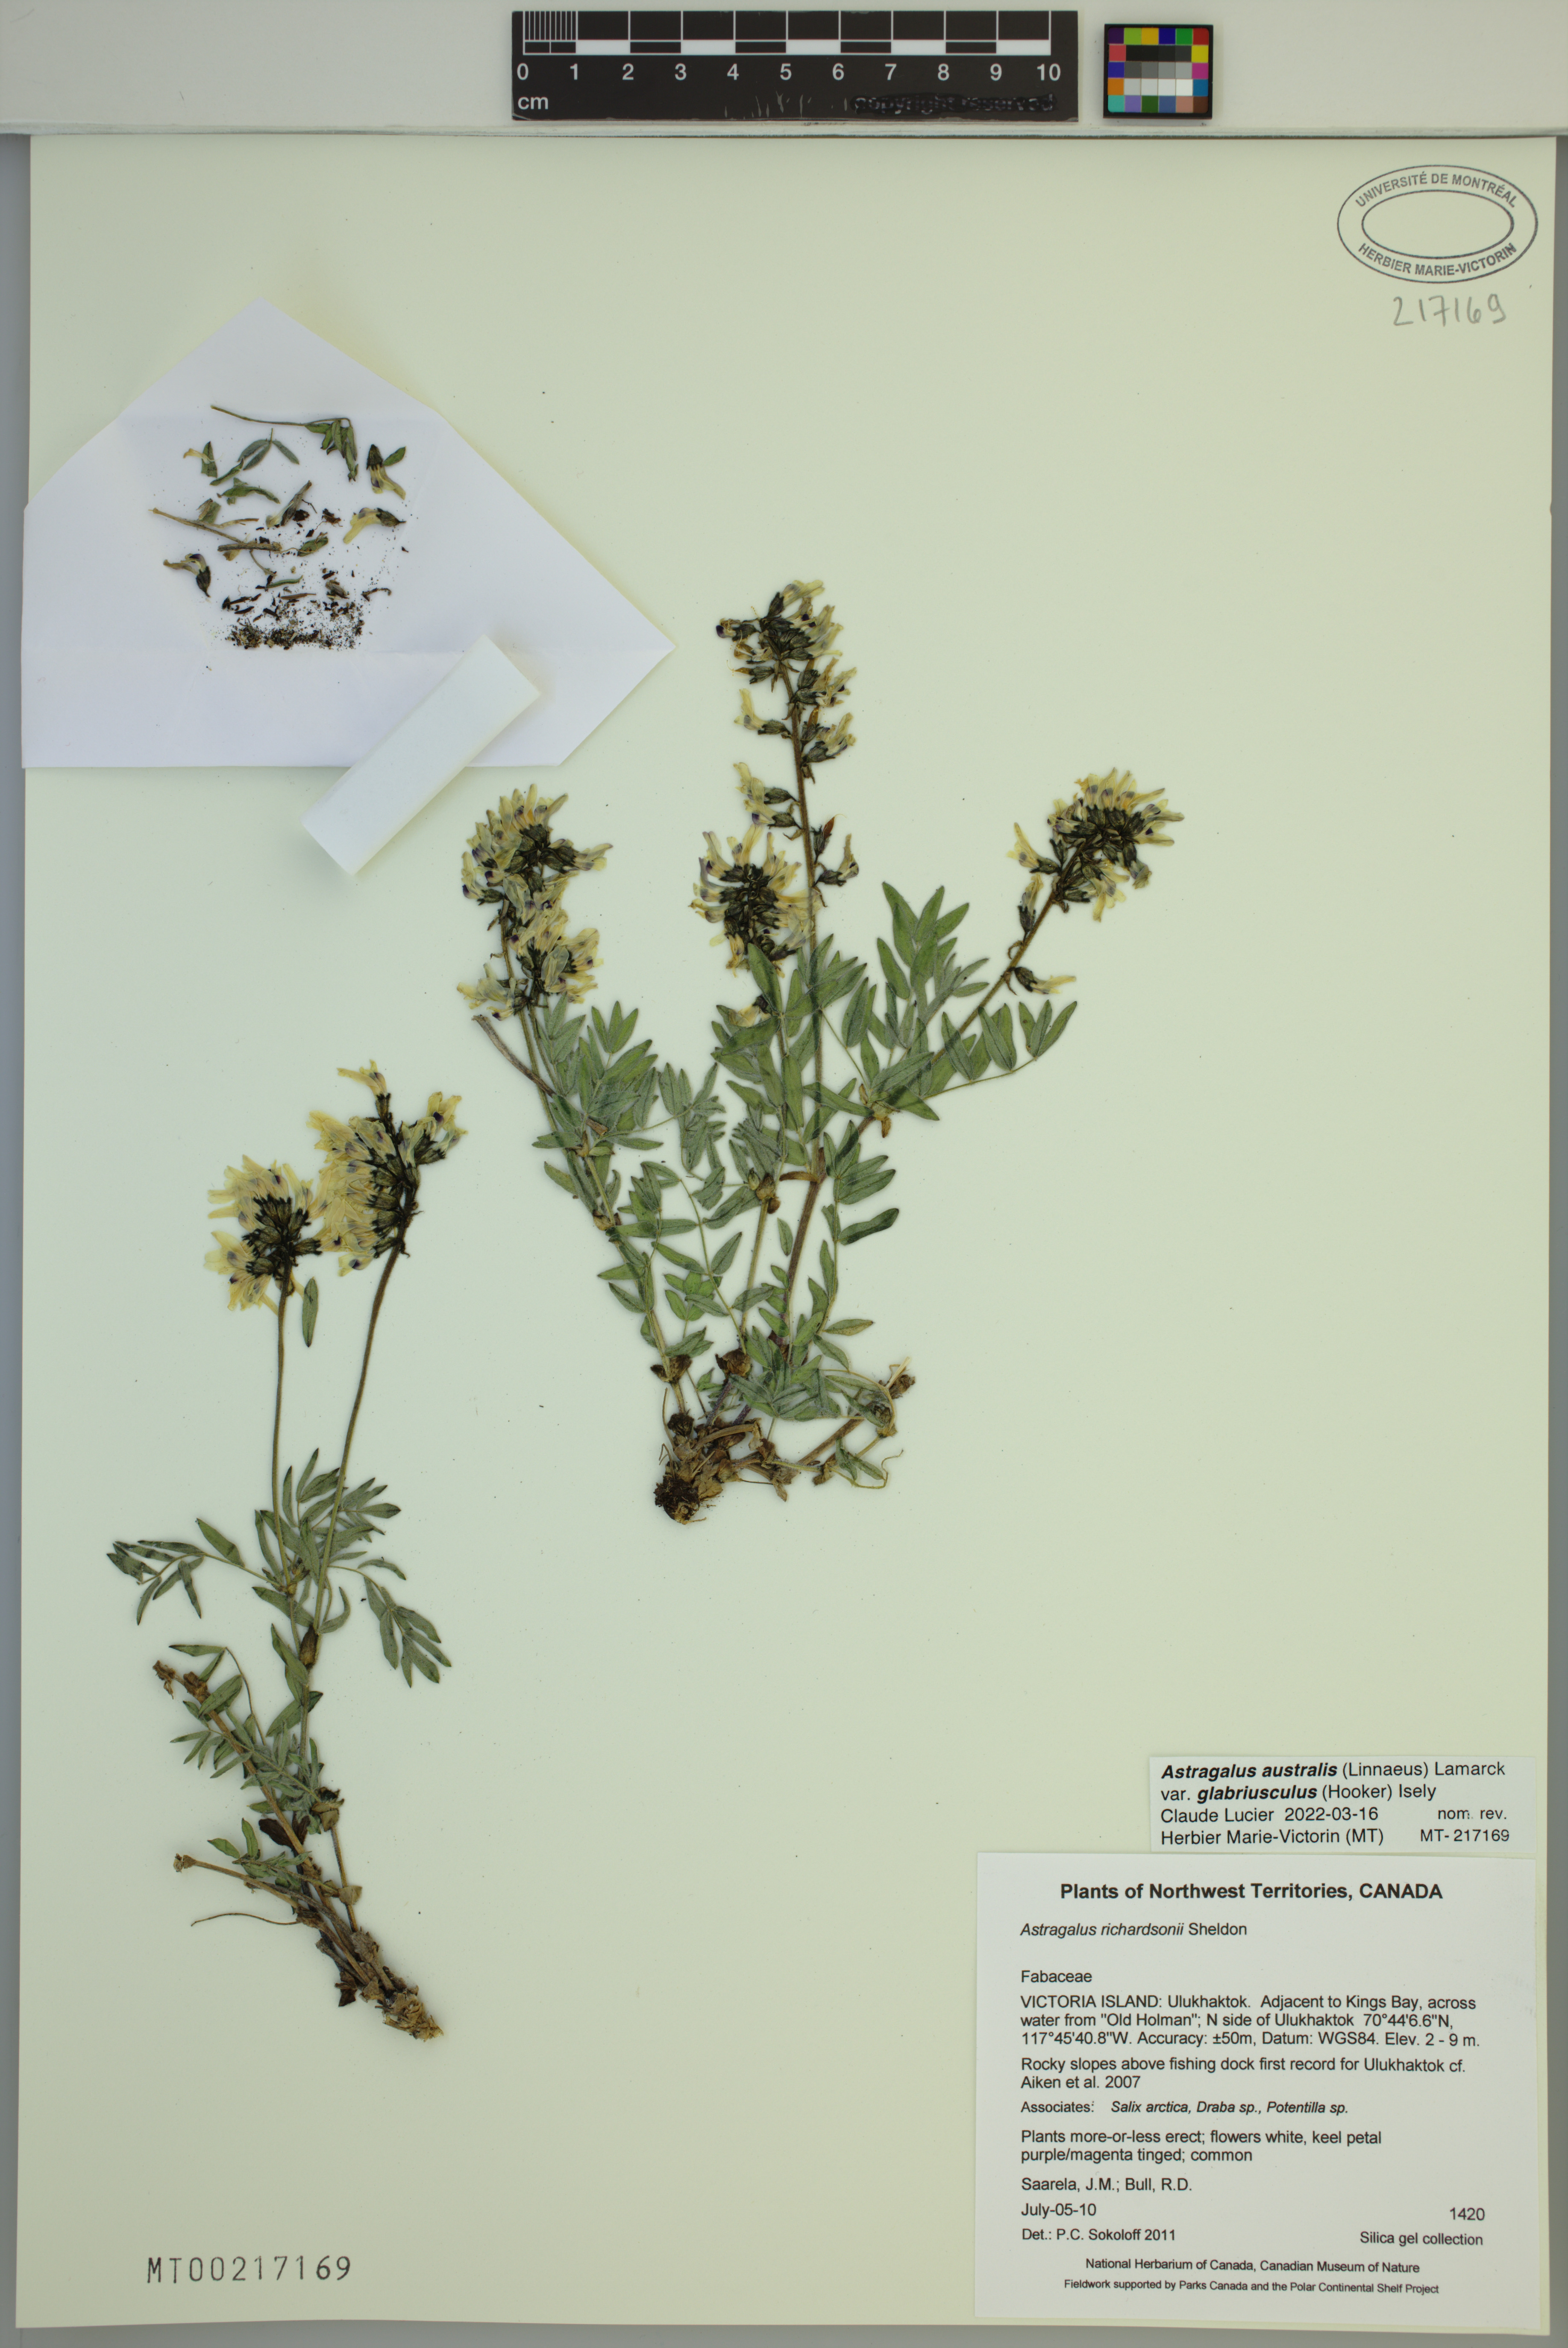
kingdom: Plantae
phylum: Tracheophyta
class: Magnoliopsida
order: Fabales
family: Fabaceae
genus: Astragalus
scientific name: Astragalus aboriginorum
